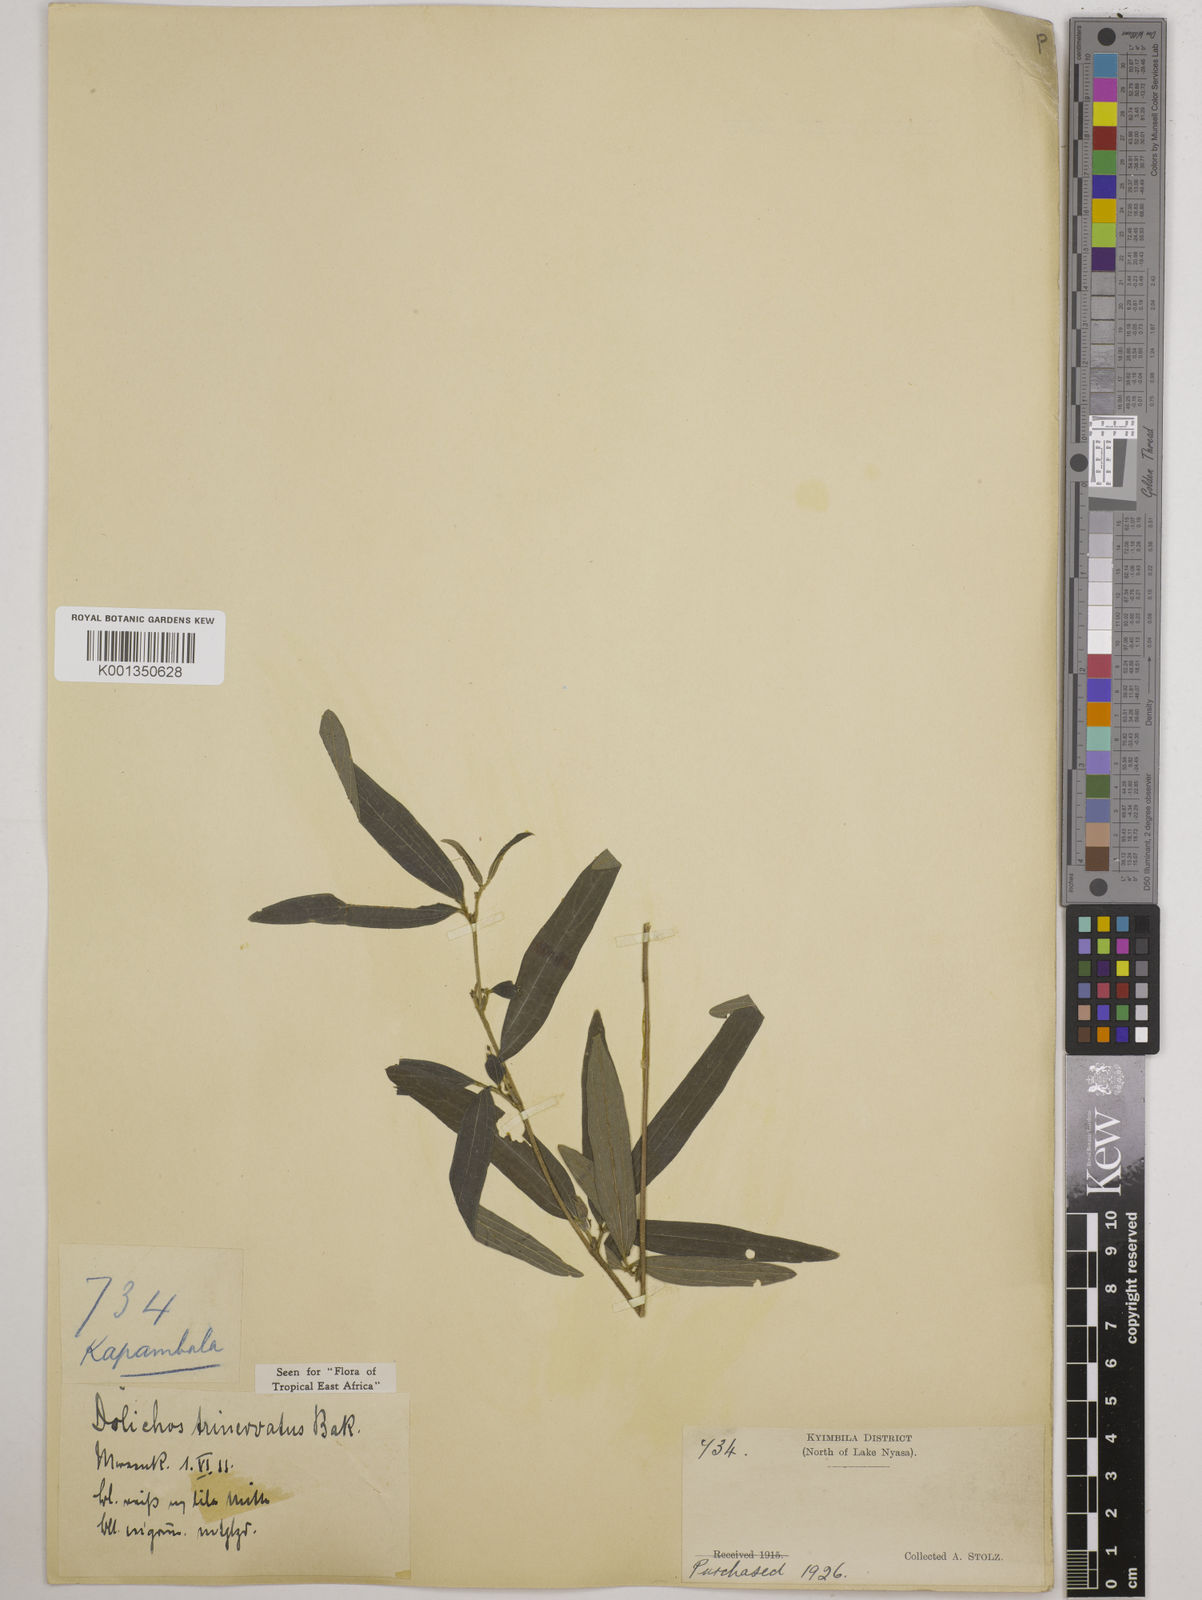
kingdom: Plantae
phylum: Tracheophyta
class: Magnoliopsida
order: Fabales
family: Fabaceae
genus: Dolichos
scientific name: Dolichos trinervatus
